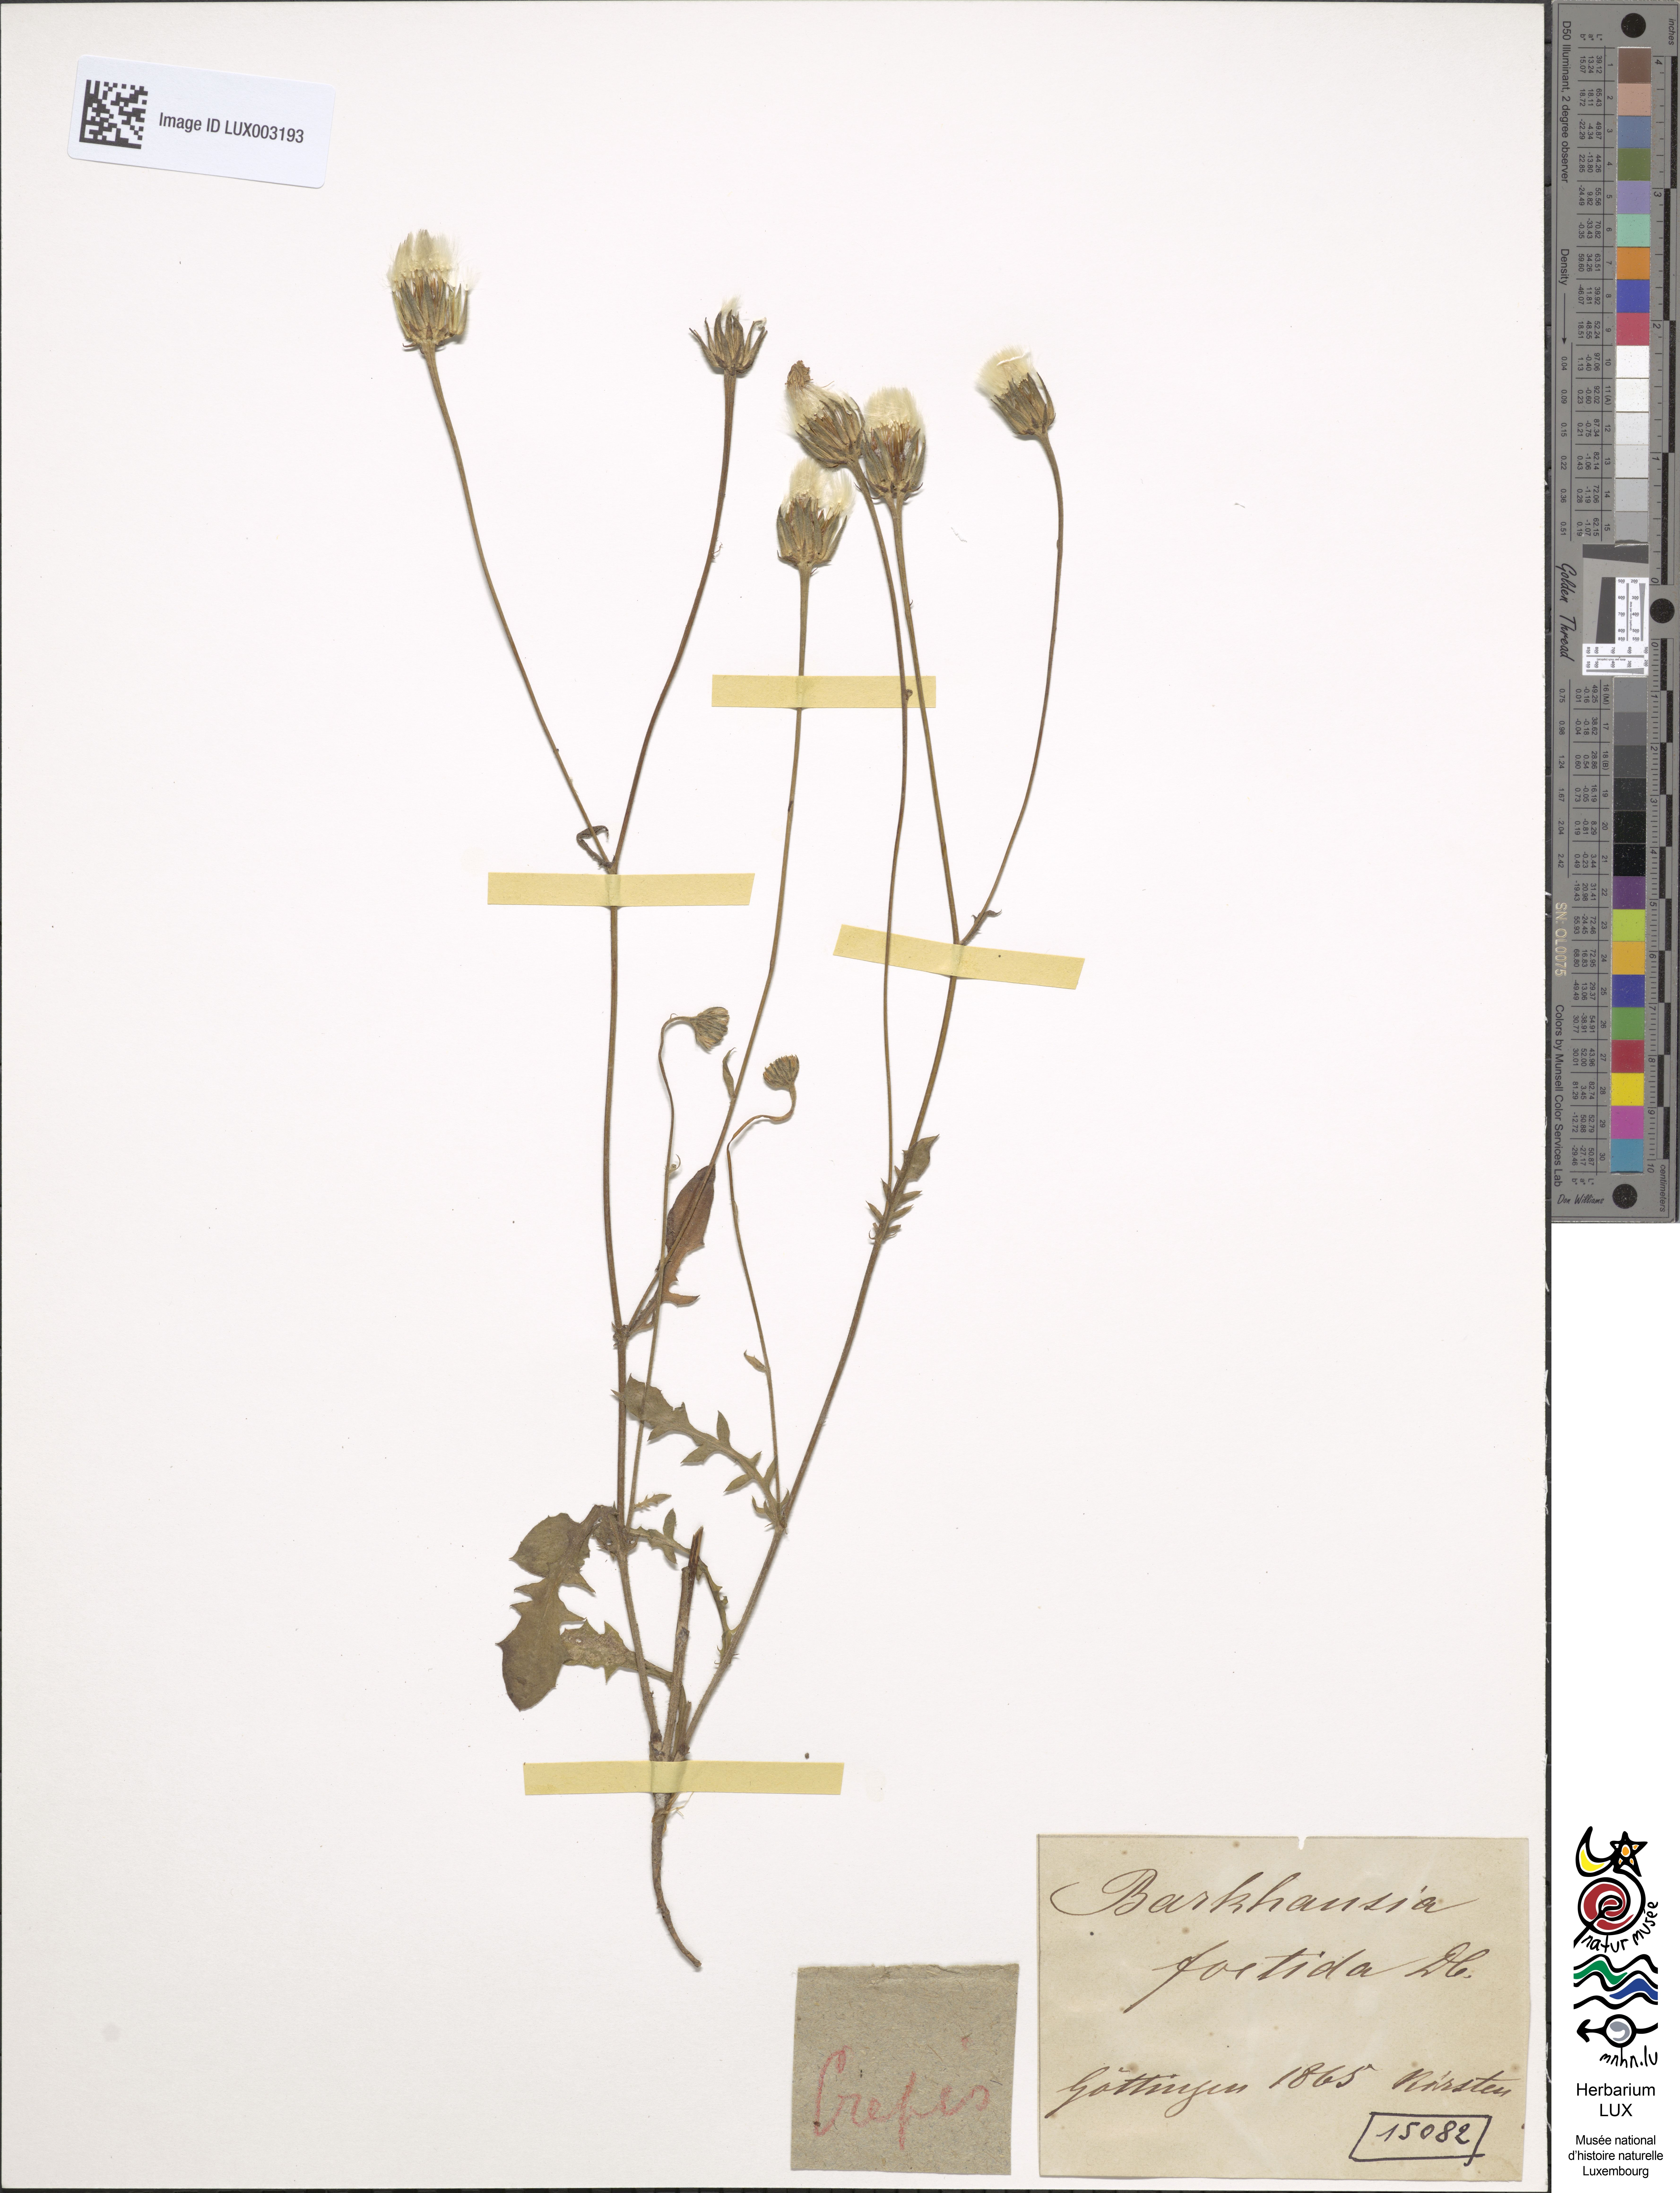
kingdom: Plantae
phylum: Tracheophyta
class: Magnoliopsida
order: Asterales
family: Asteraceae
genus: Crepis
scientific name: Crepis foetida
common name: Stinking hawk's-beard
